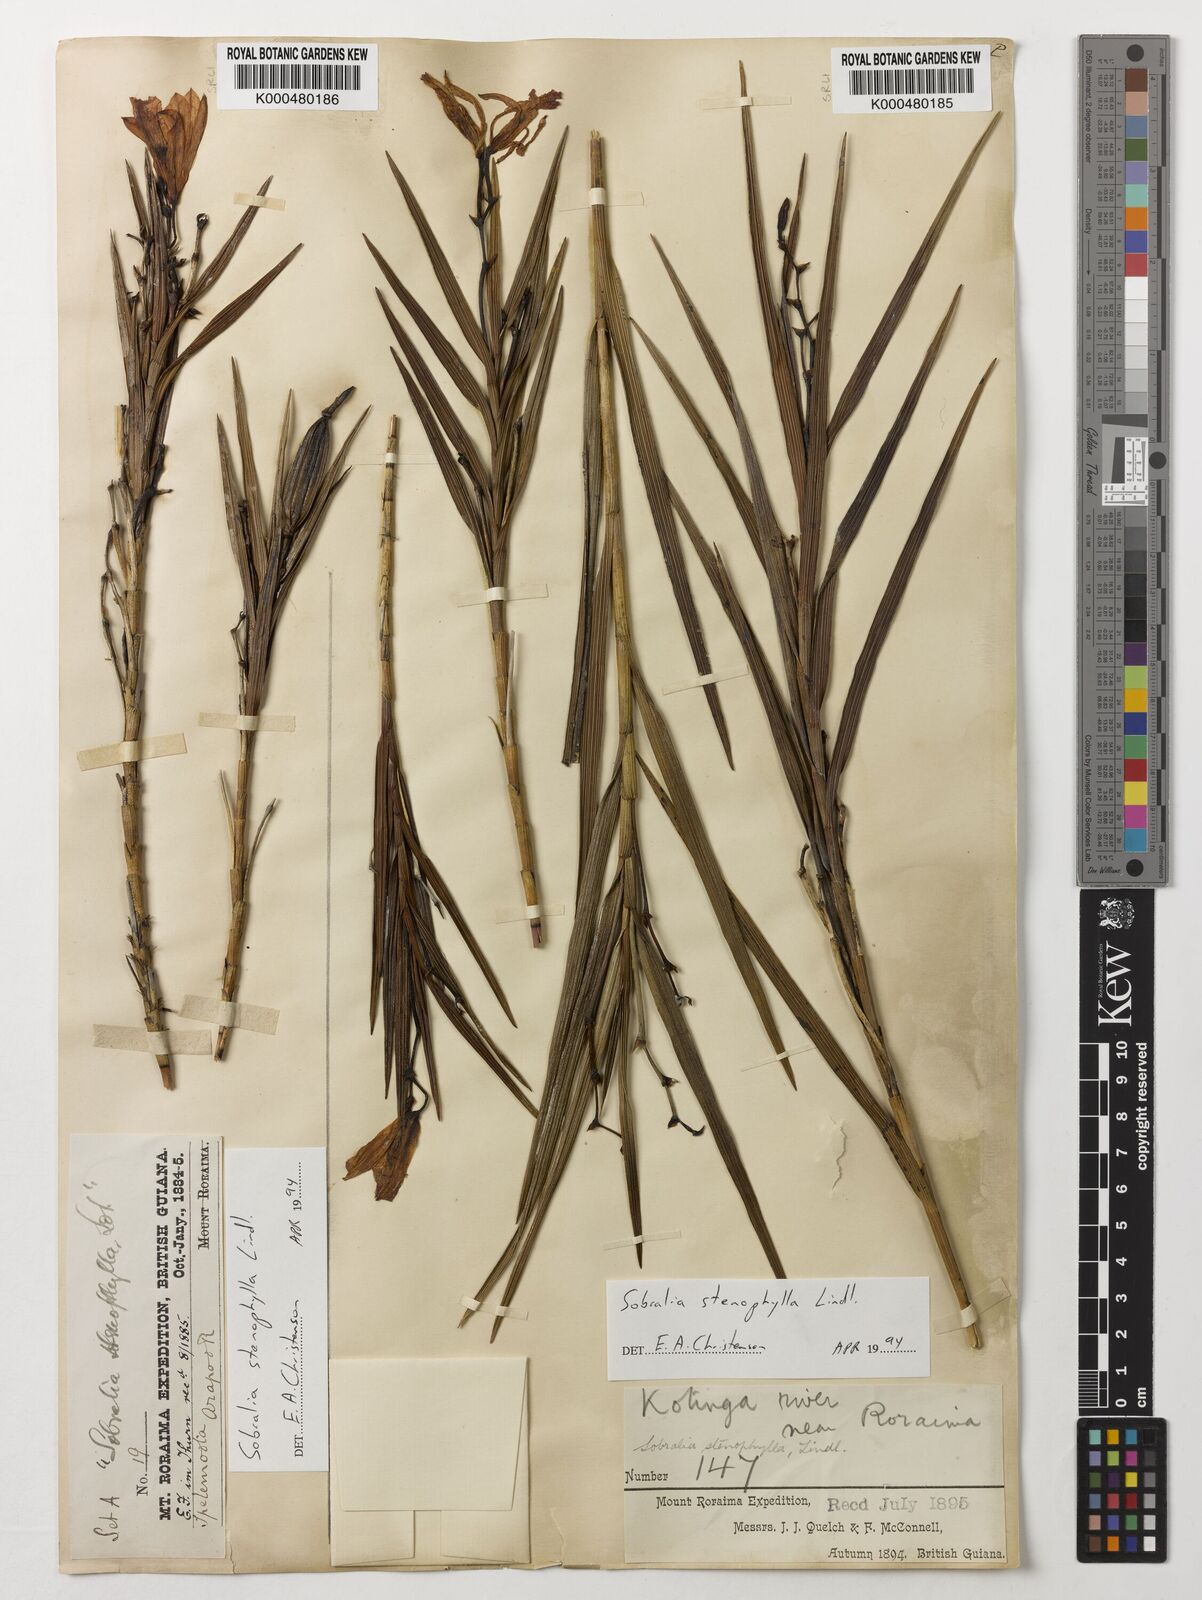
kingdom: Plantae
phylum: Tracheophyta
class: Liliopsida
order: Asparagales
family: Orchidaceae
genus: Sobralia
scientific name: Sobralia stenophylla
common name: Thin leafed sobralia
